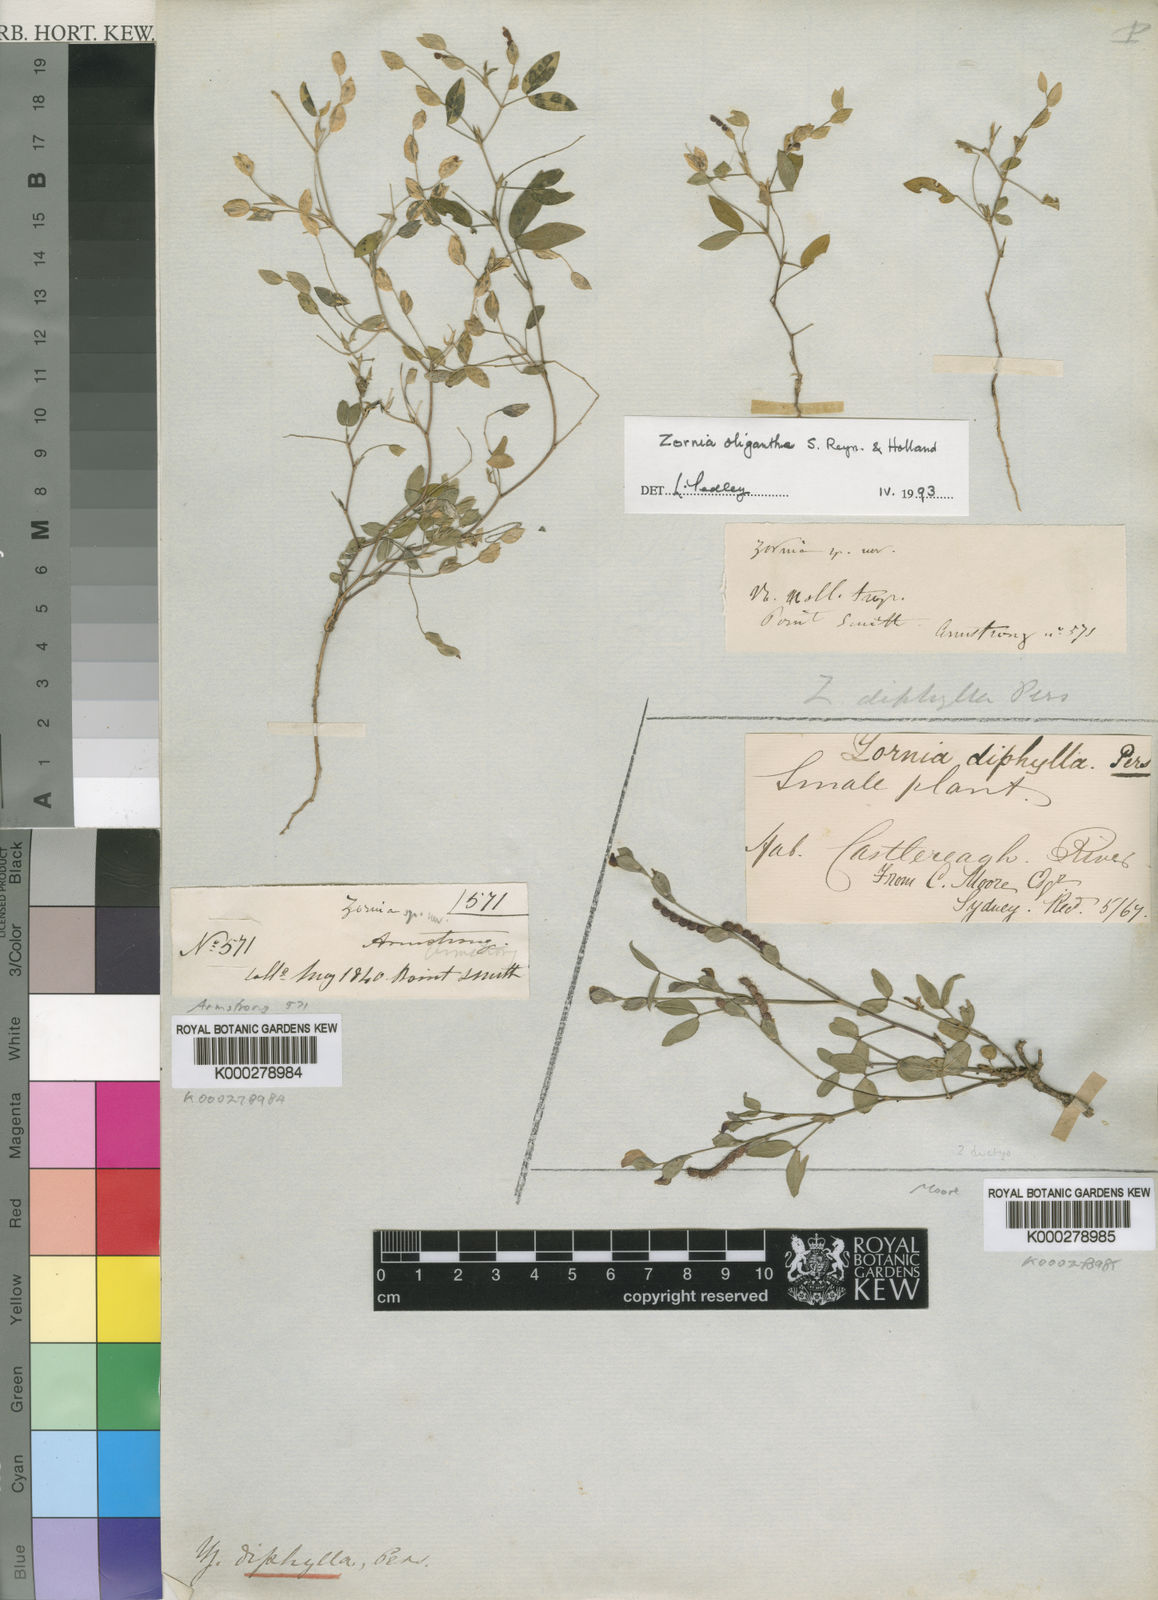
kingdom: Plantae
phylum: Tracheophyta
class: Magnoliopsida
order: Fabales
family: Fabaceae
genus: Zornia
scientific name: Zornia oligantha
